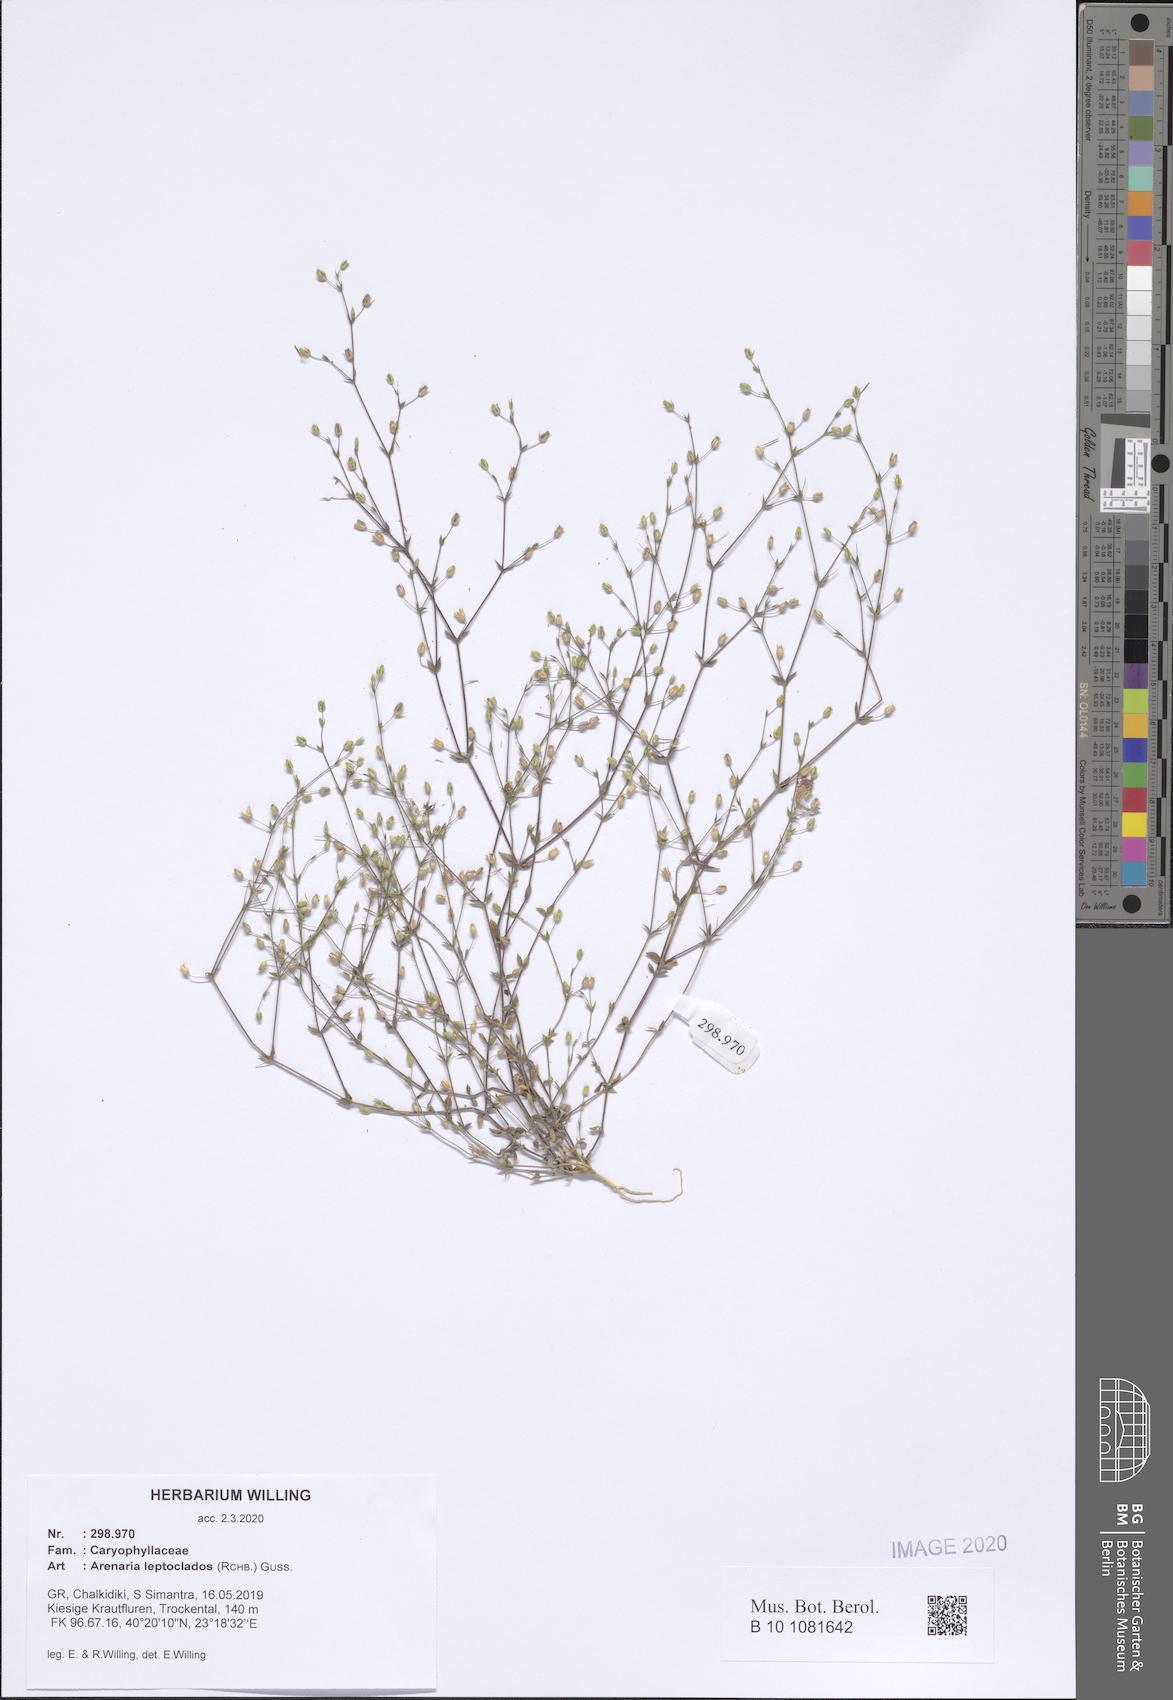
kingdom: Plantae
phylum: Tracheophyta
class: Magnoliopsida
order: Caryophyllales
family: Caryophyllaceae
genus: Arenaria
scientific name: Arenaria leptoclados
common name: Thyme-leaved sandwort
